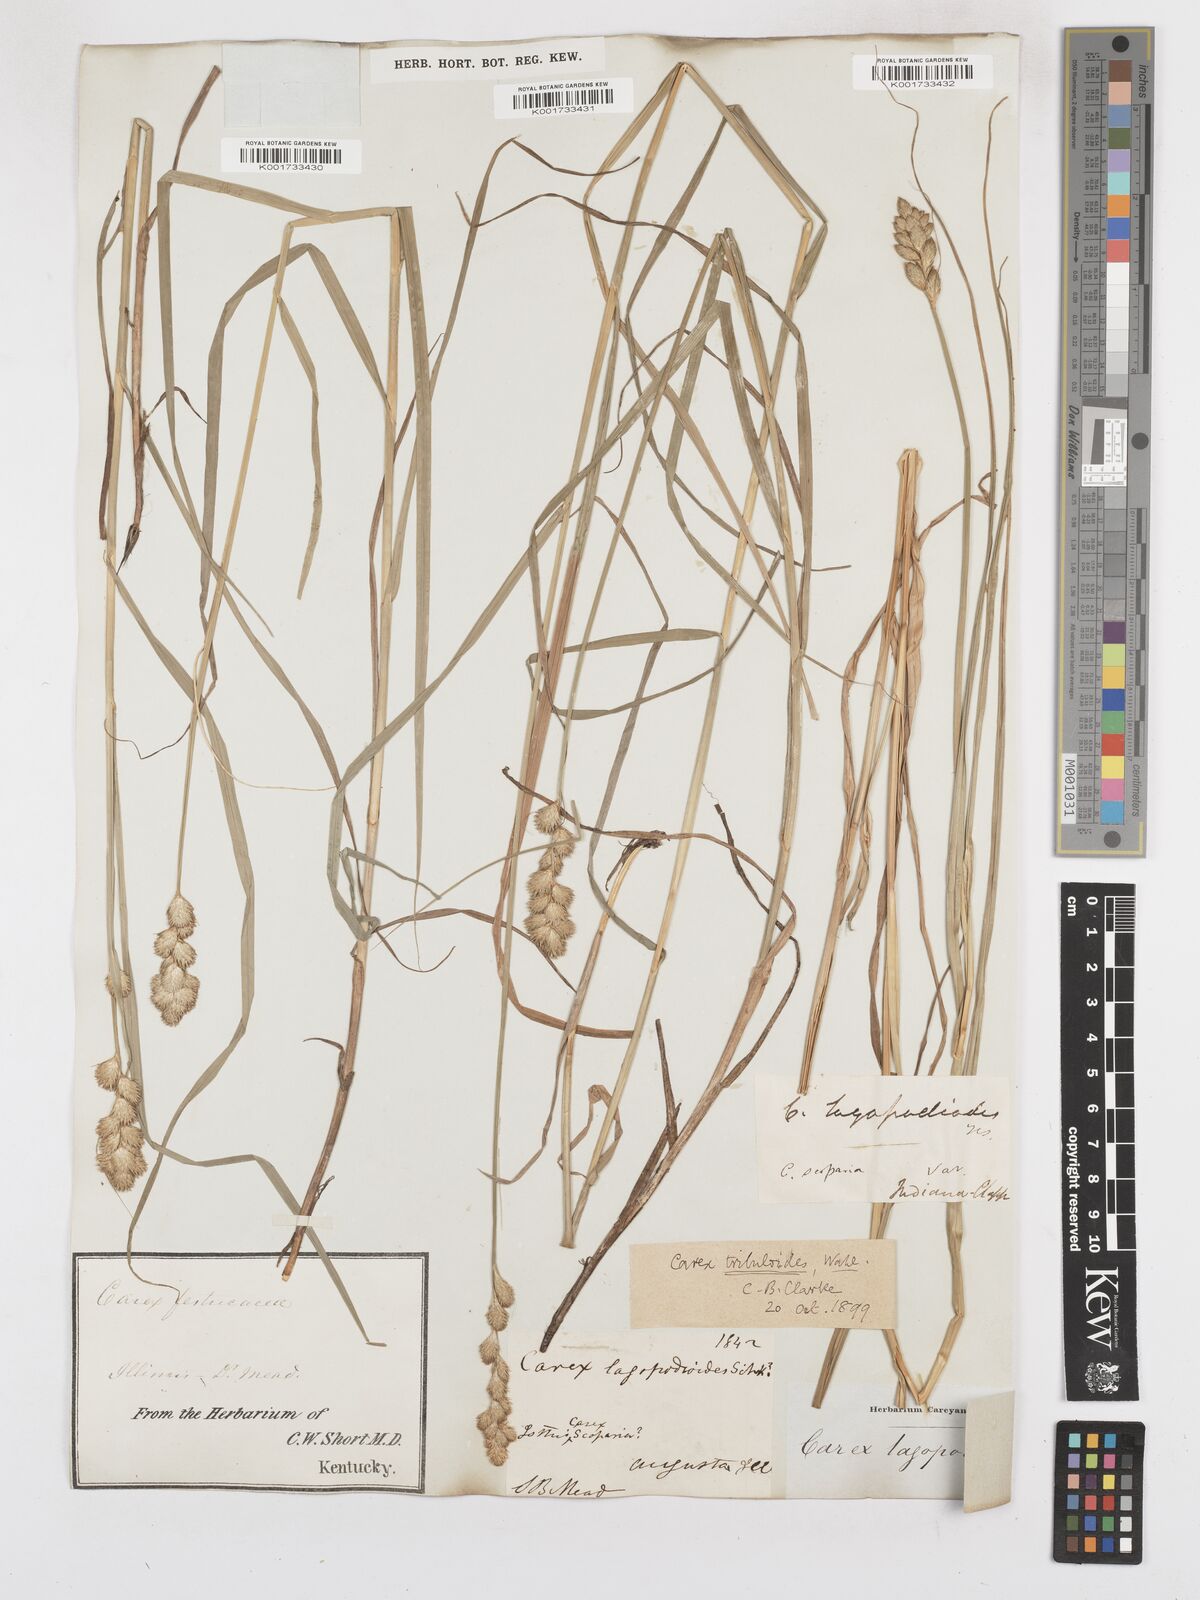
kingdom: Plantae
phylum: Tracheophyta
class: Liliopsida
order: Poales
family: Cyperaceae
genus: Carex
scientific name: Carex tribuloides
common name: Blunt broom sedge
